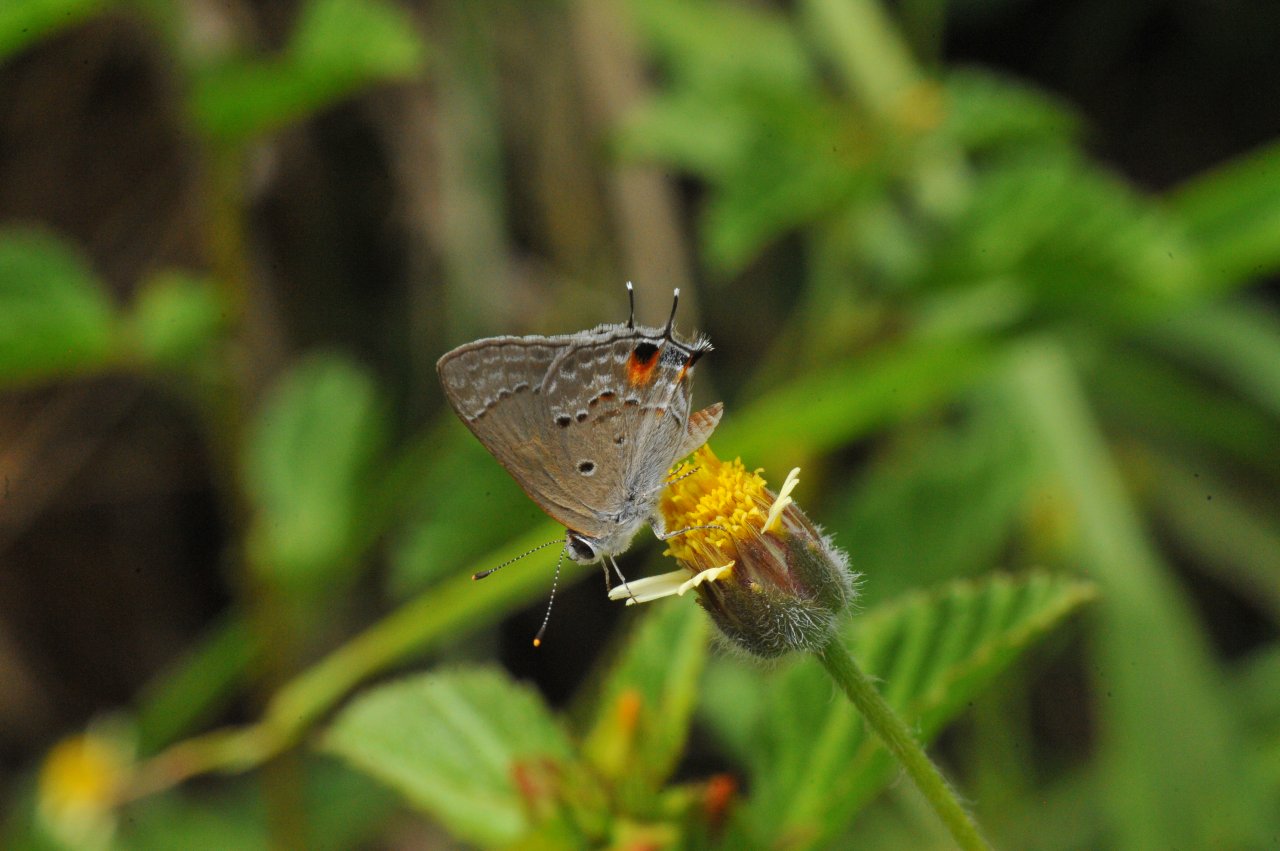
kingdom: Animalia
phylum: Arthropoda
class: Insecta
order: Lepidoptera
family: Lycaenidae
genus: Callicista
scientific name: Callicista columella
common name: Mallow Scrub-Hairstreak
